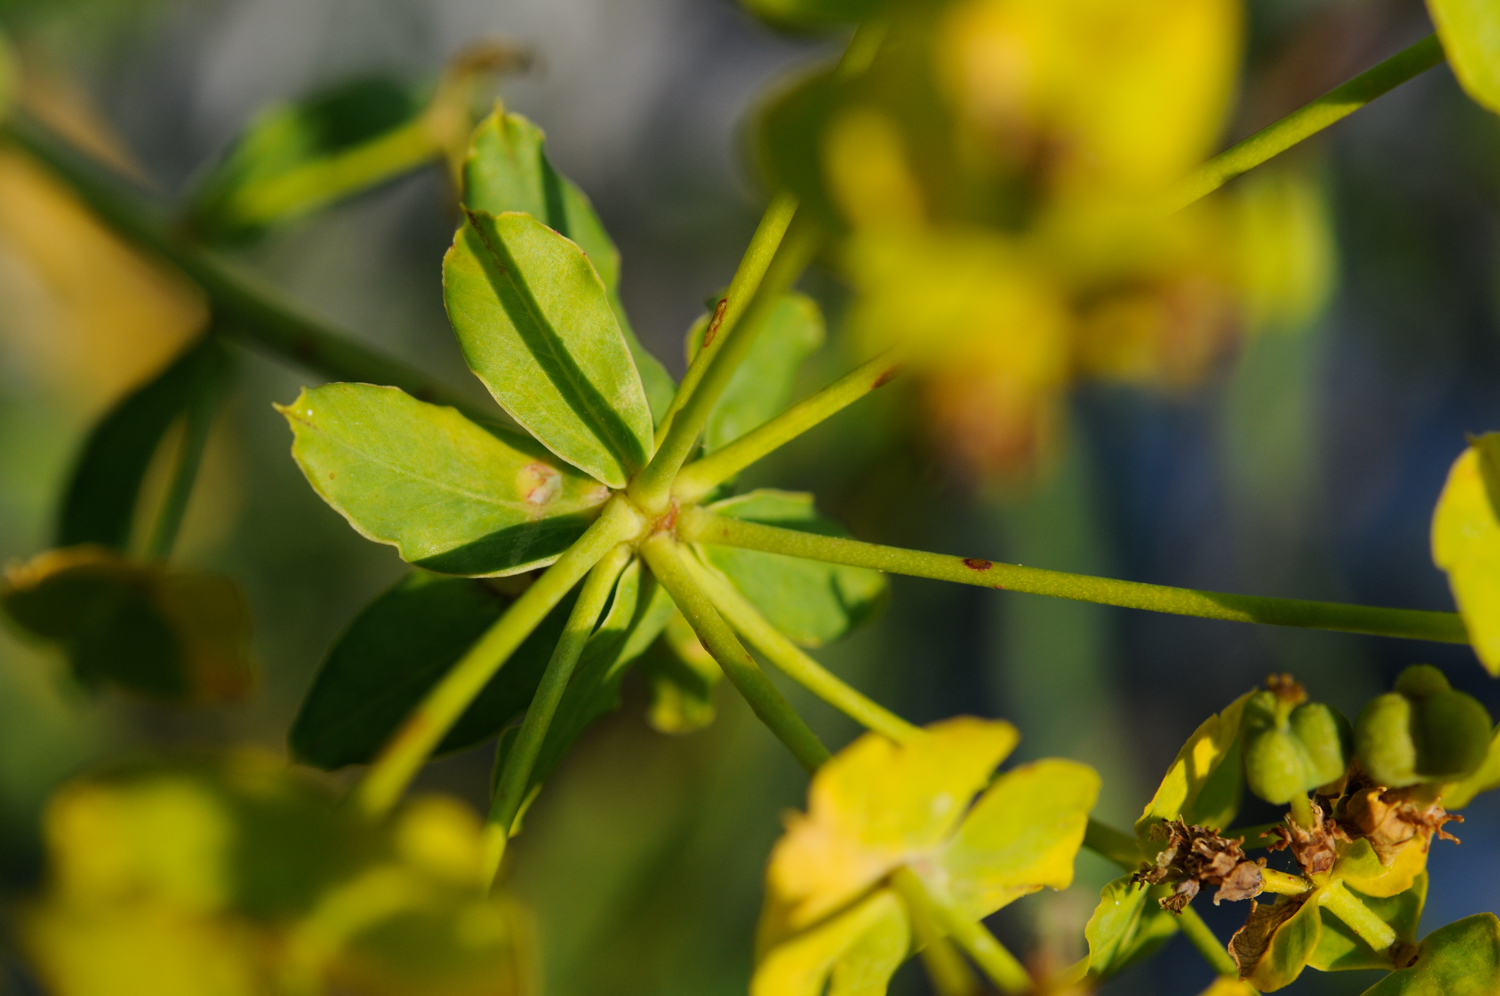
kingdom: Plantae
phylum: Tracheophyta
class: Magnoliopsida
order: Malpighiales
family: Euphorbiaceae
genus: Euphorbia
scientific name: Euphorbia oblongifolia
